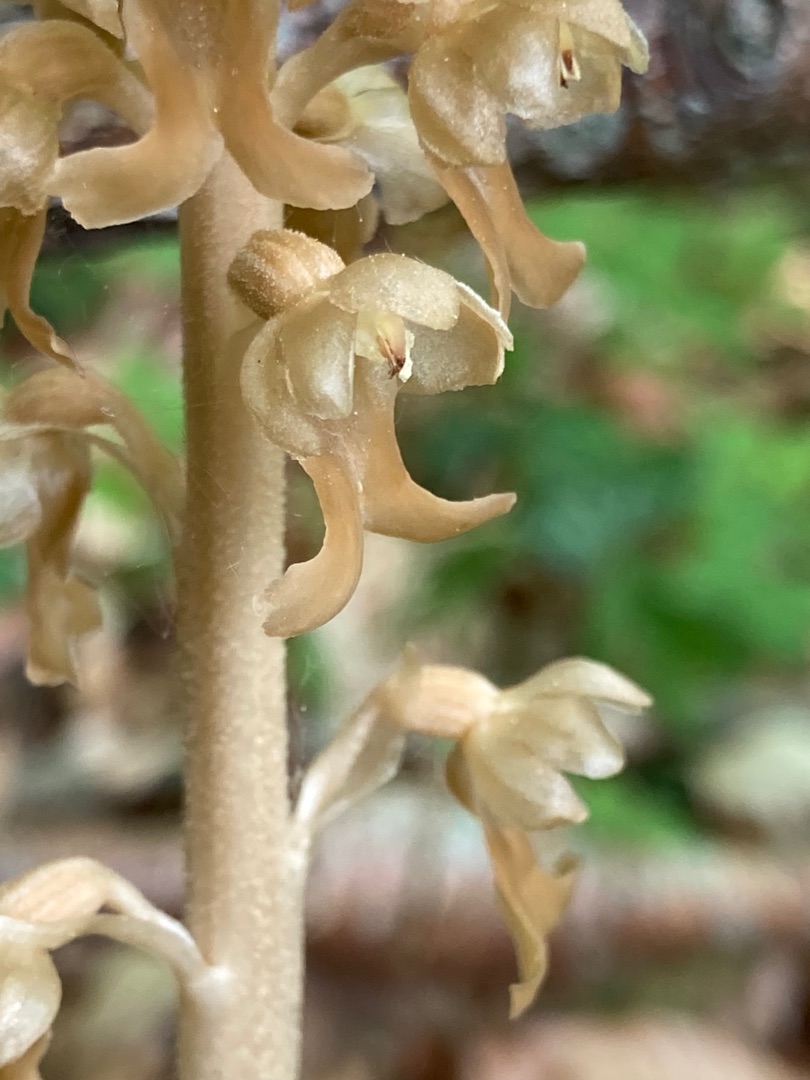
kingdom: Plantae
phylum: Tracheophyta
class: Liliopsida
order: Asparagales
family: Orchidaceae
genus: Neottia
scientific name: Neottia nidus-avis
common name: Rederod
